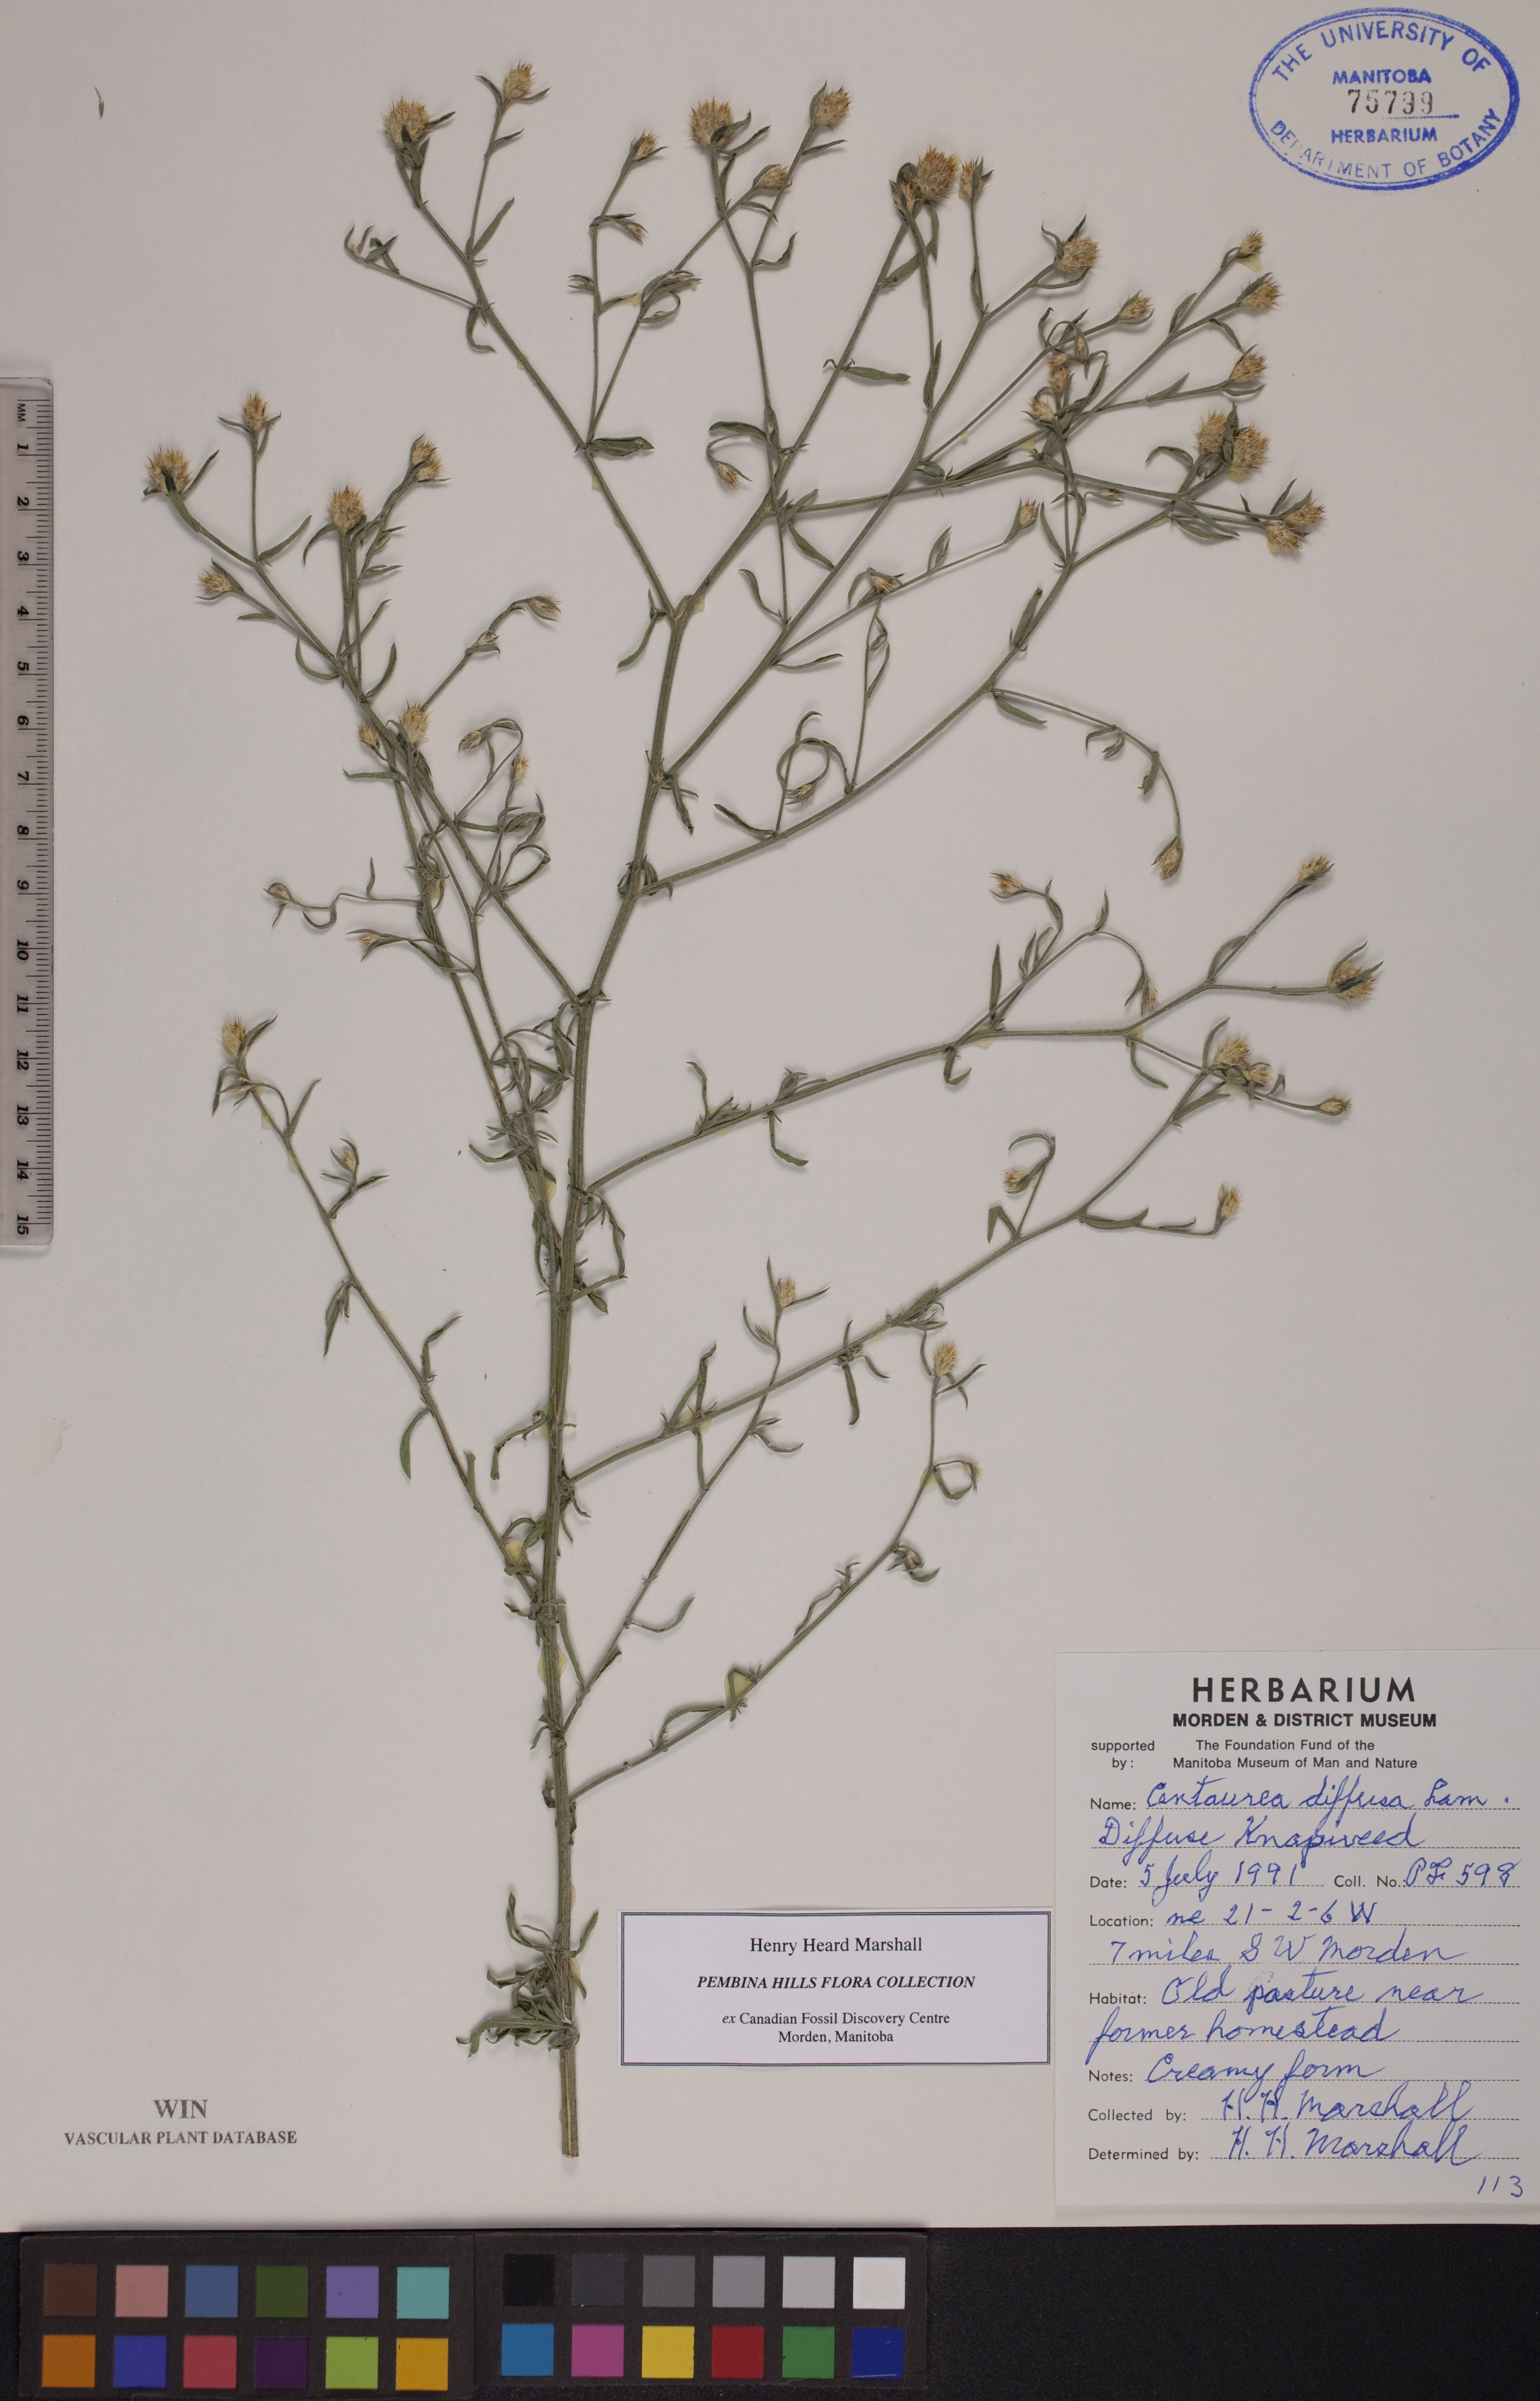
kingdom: Plantae
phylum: Tracheophyta
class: Magnoliopsida
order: Asterales
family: Asteraceae
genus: Centaurea
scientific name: Centaurea diffusa
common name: Diffuse knapweed
